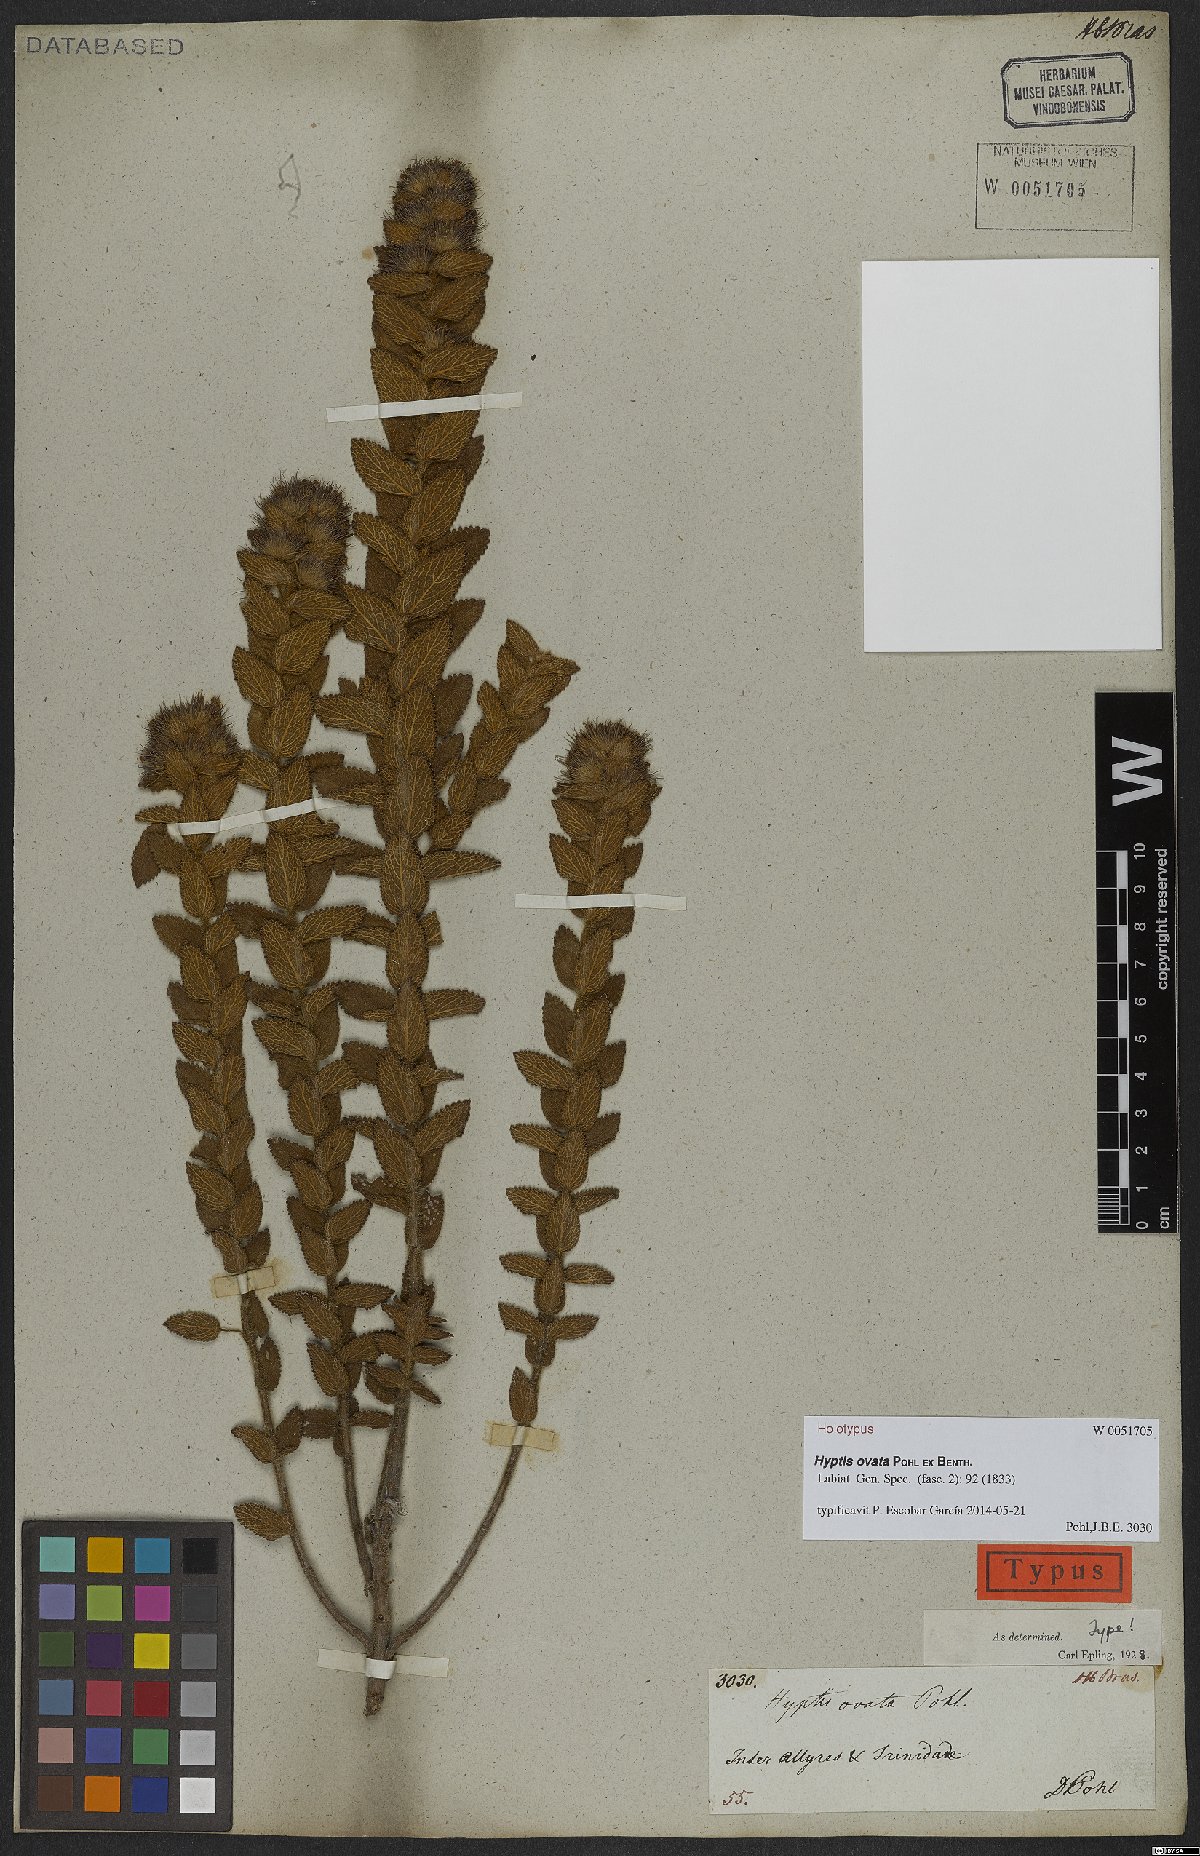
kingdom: Plantae
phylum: Tracheophyta
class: Magnoliopsida
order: Lamiales
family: Lamiaceae
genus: Hyptis
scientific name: Hyptis ovata
